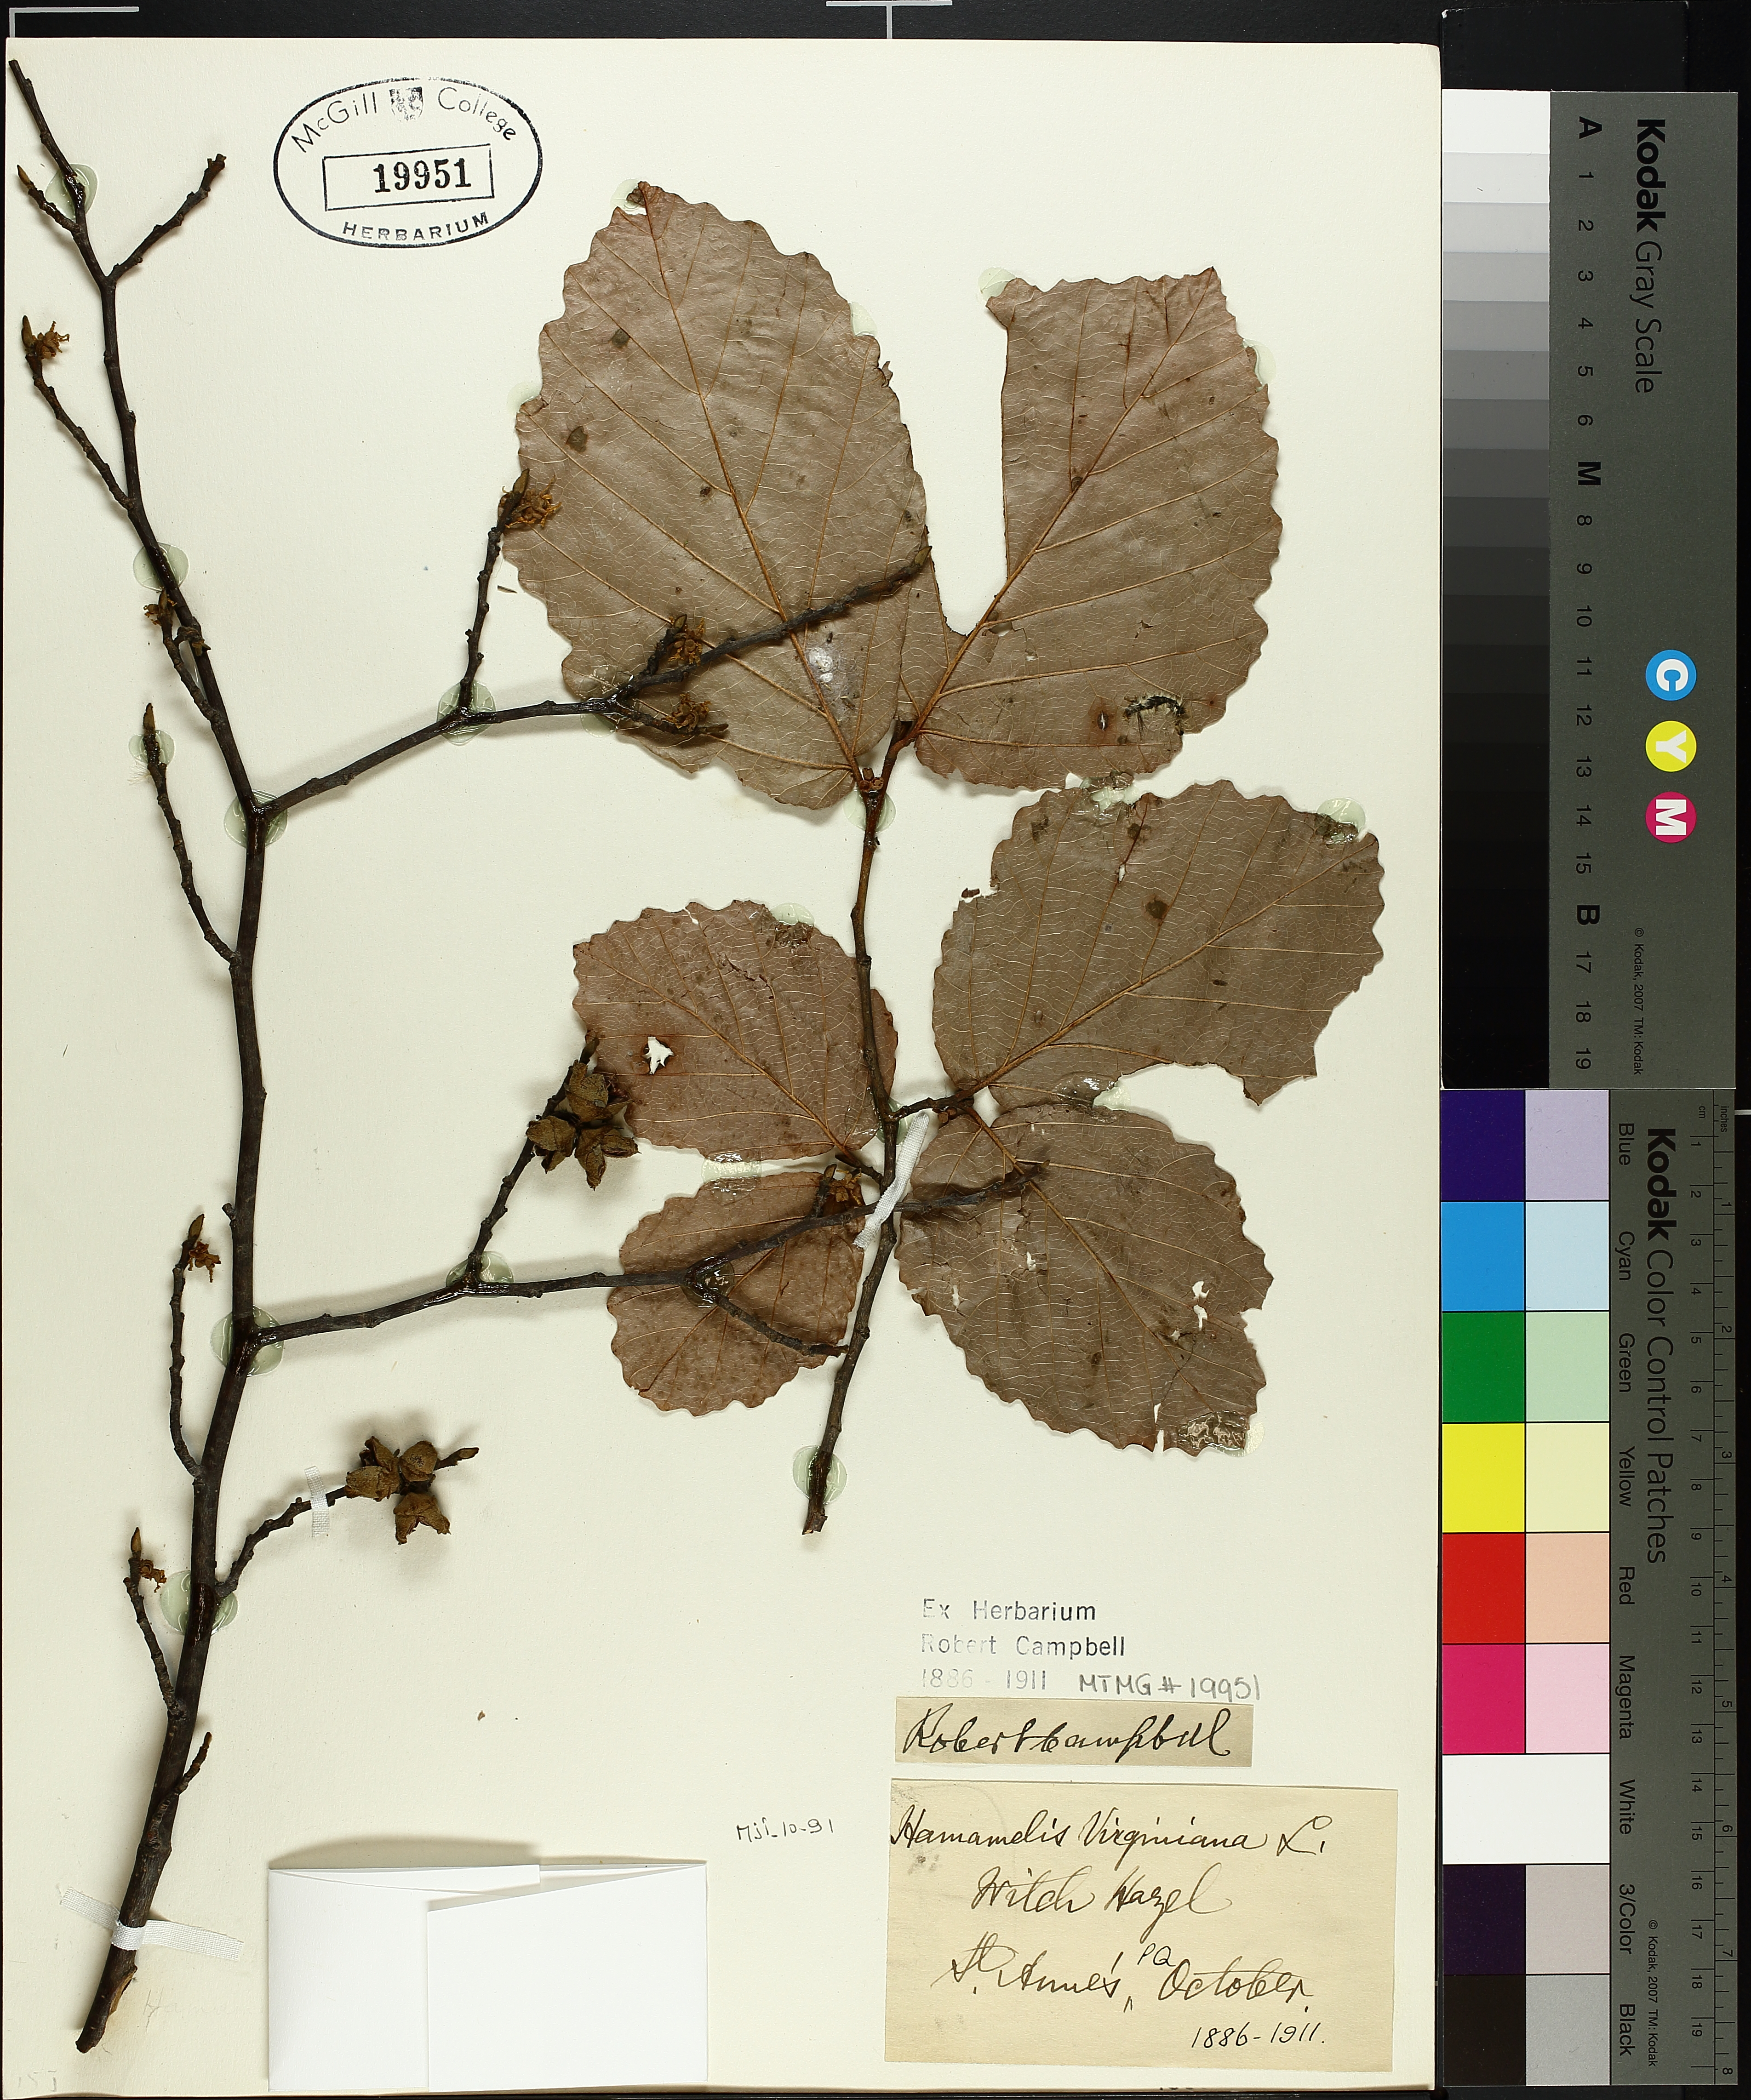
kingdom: Plantae
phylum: Tracheophyta
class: Magnoliopsida
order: Saxifragales
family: Hamamelidaceae
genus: Hamamelis
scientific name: Hamamelis virginiana
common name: Witch-hazel
